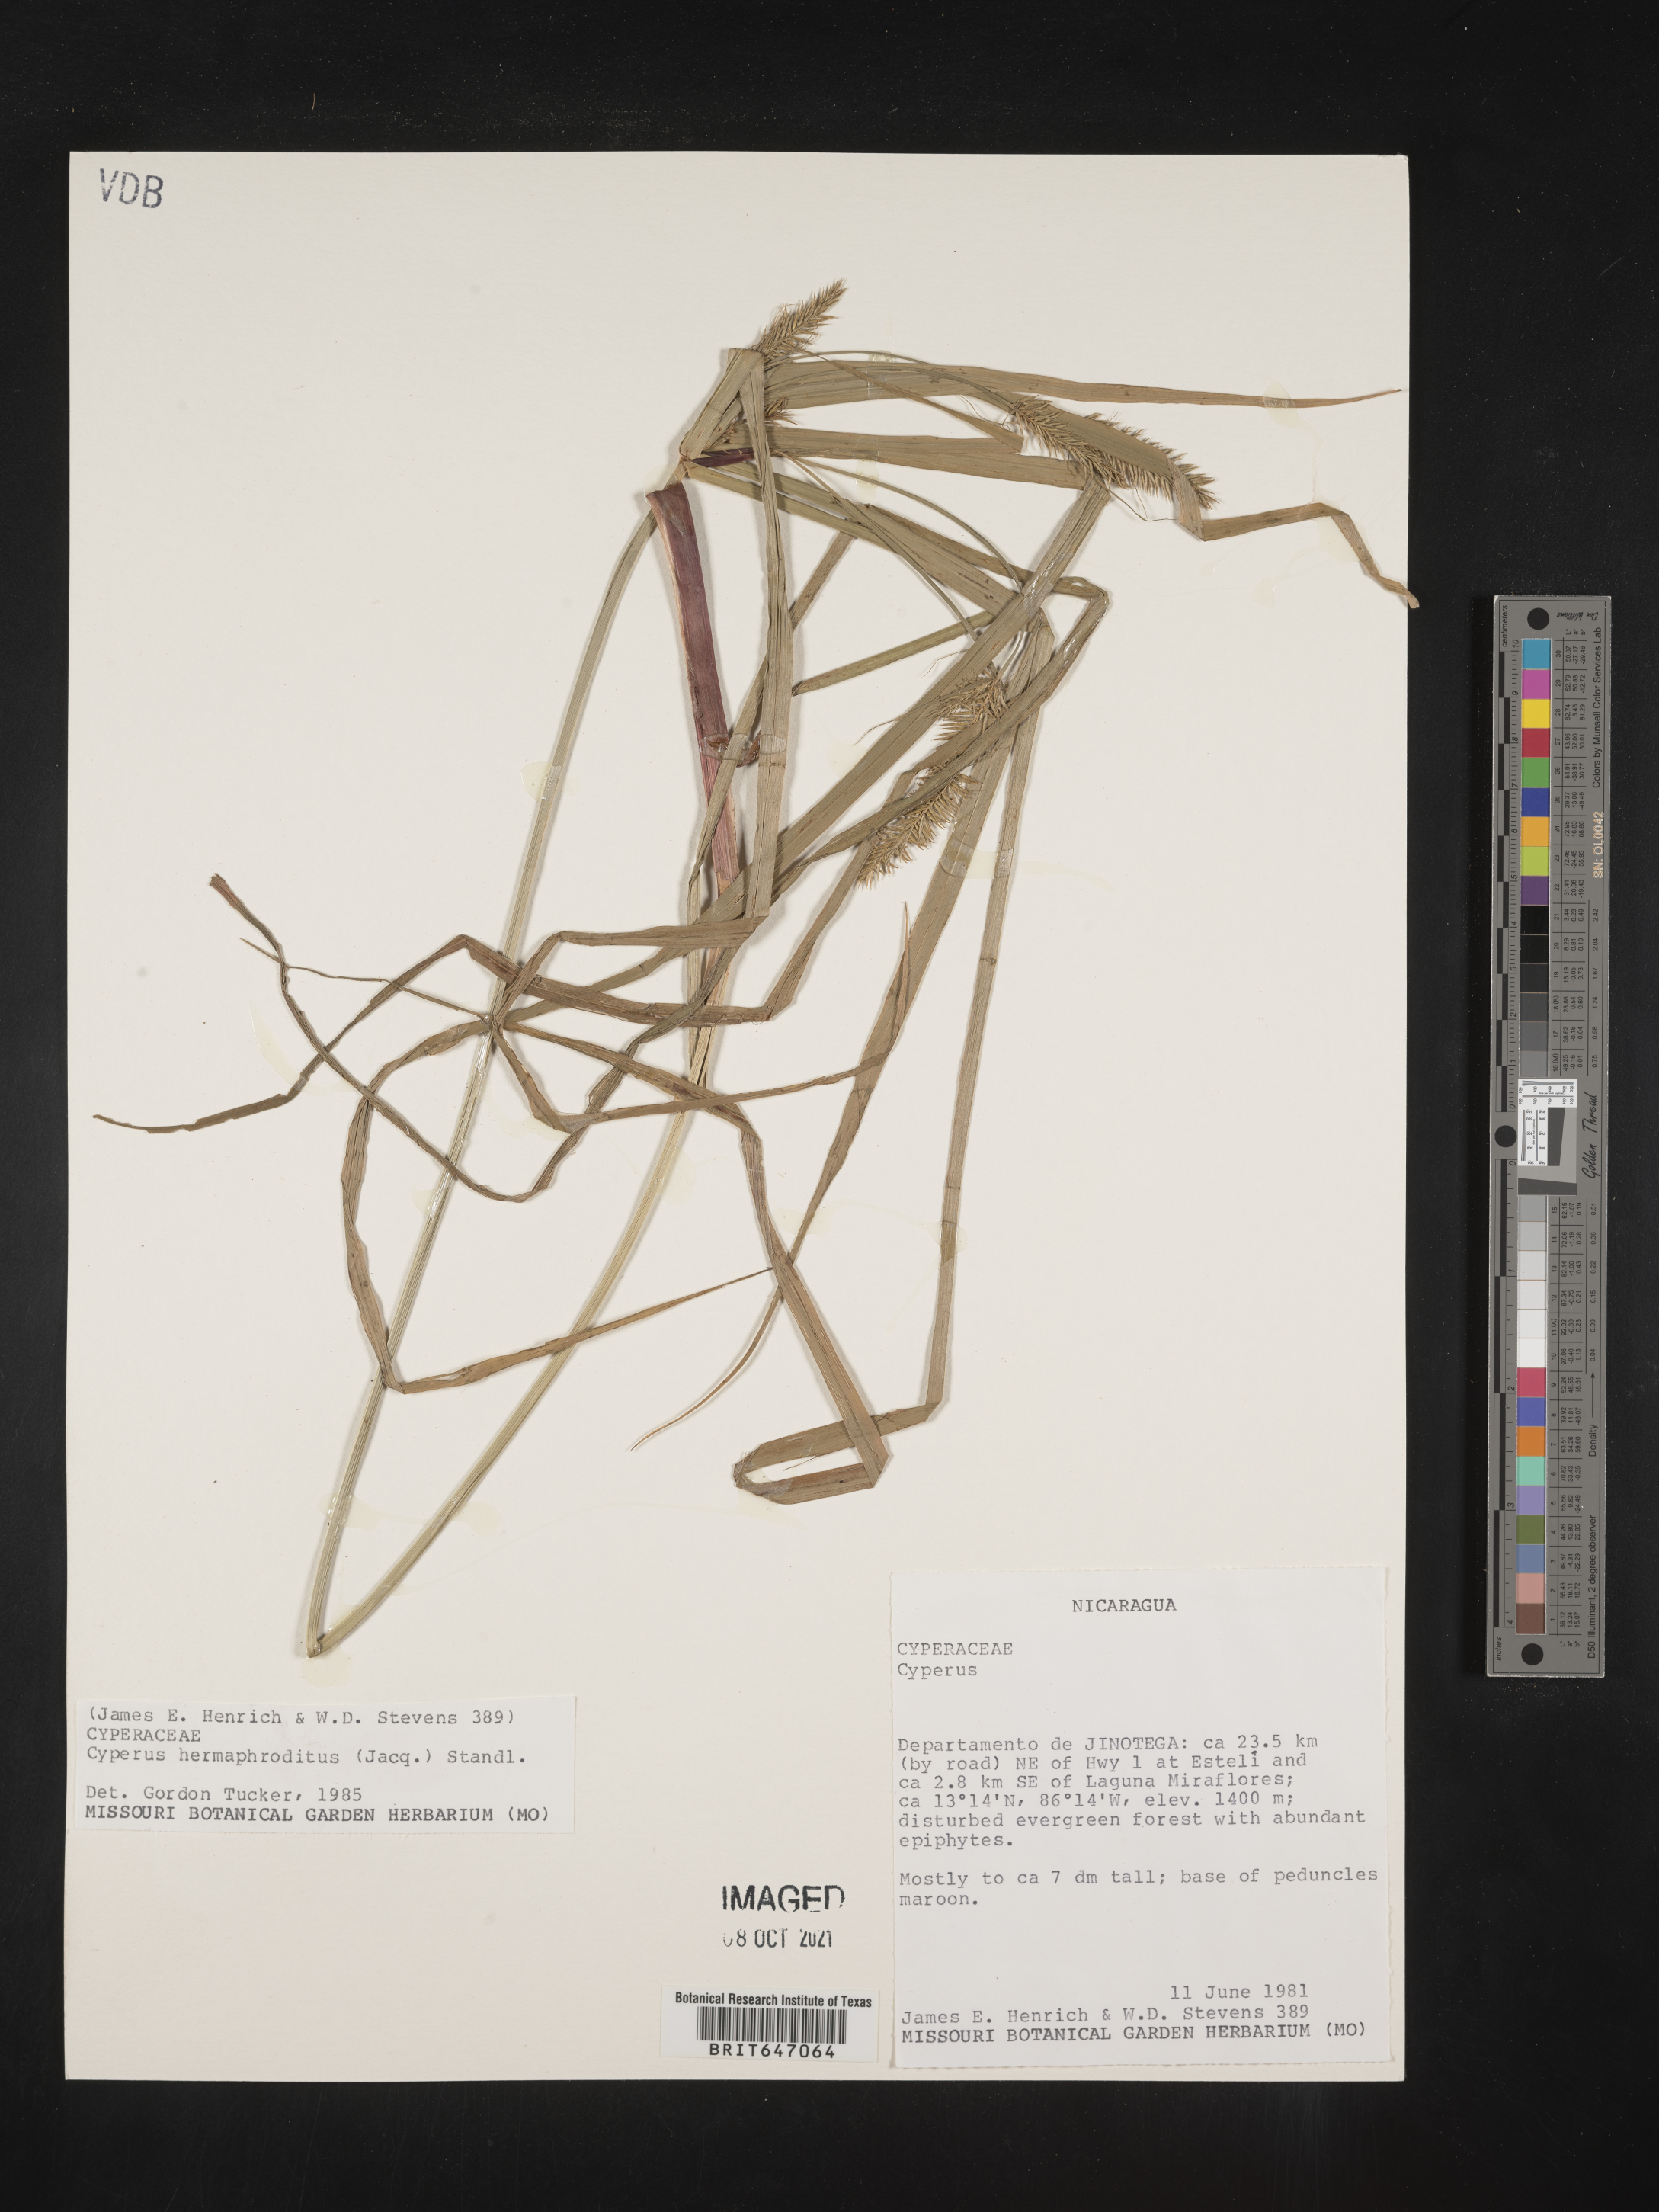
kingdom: Plantae
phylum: Tracheophyta
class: Liliopsida
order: Poales
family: Cyperaceae
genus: Cyperus
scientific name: Cyperus hermaphroditus
